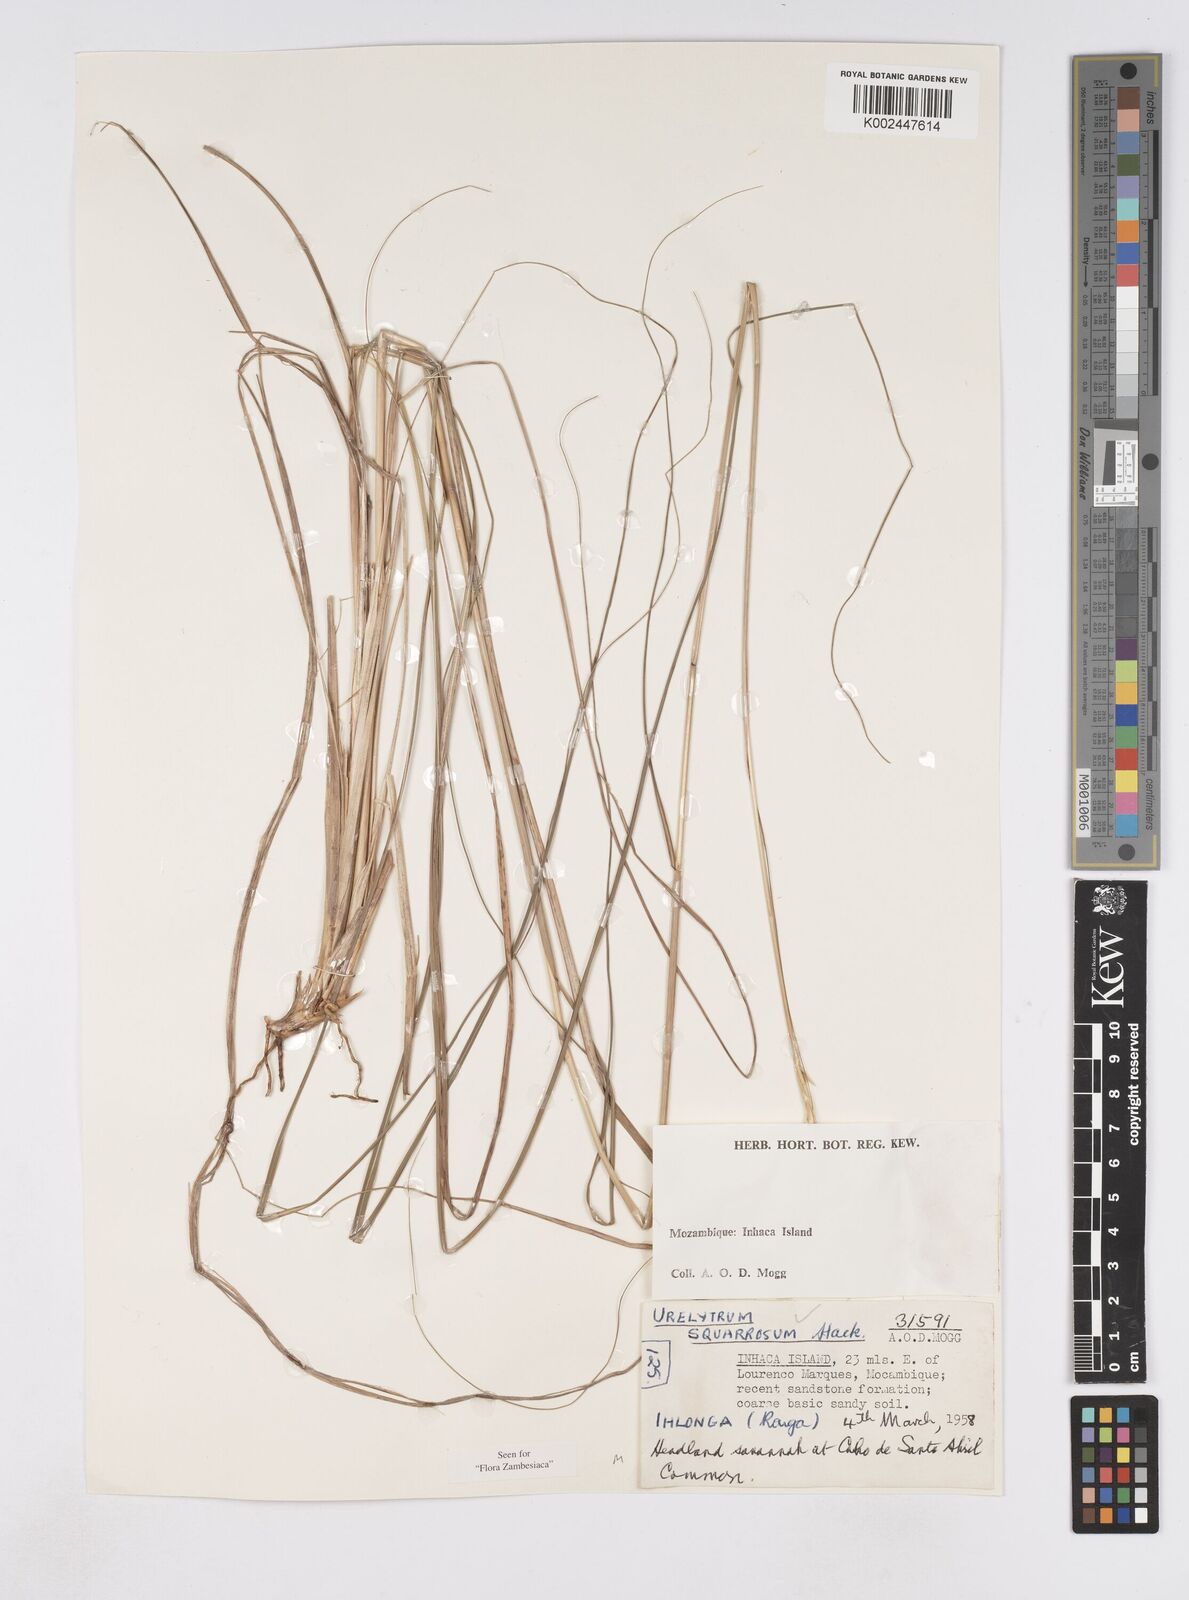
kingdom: Plantae
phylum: Tracheophyta
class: Liliopsida
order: Poales
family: Poaceae
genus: Urelytrum
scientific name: Urelytrum agropyroides
